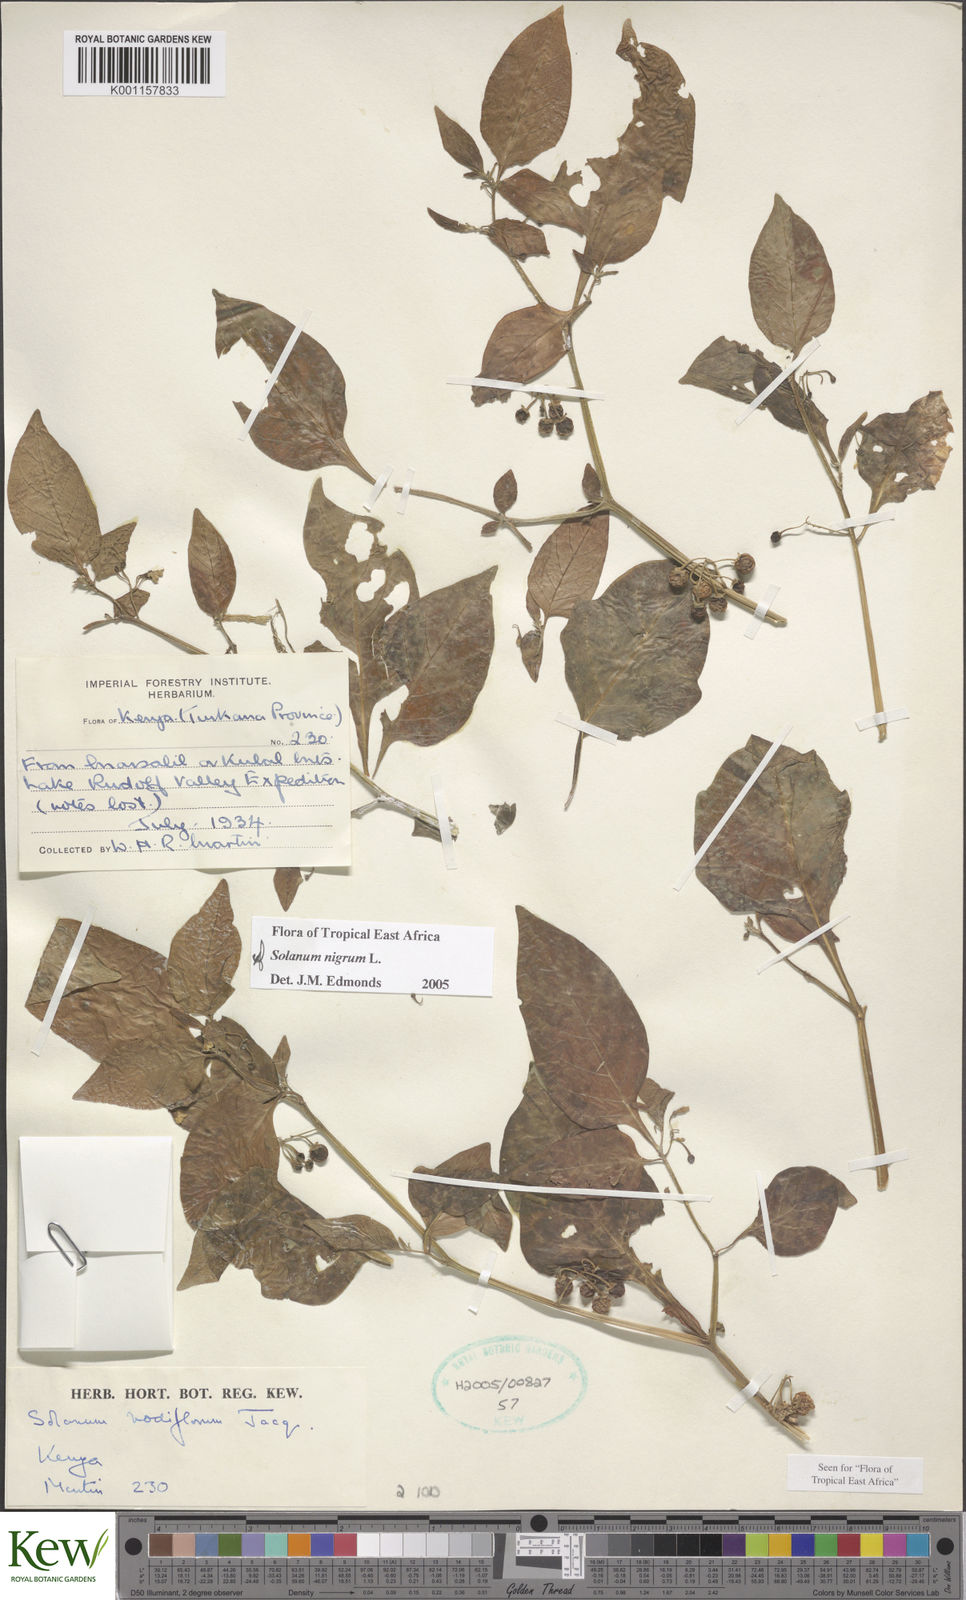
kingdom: Plantae
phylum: Tracheophyta
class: Magnoliopsida
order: Solanales
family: Solanaceae
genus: Solanum
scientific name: Solanum nigrum
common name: Black nightshade
